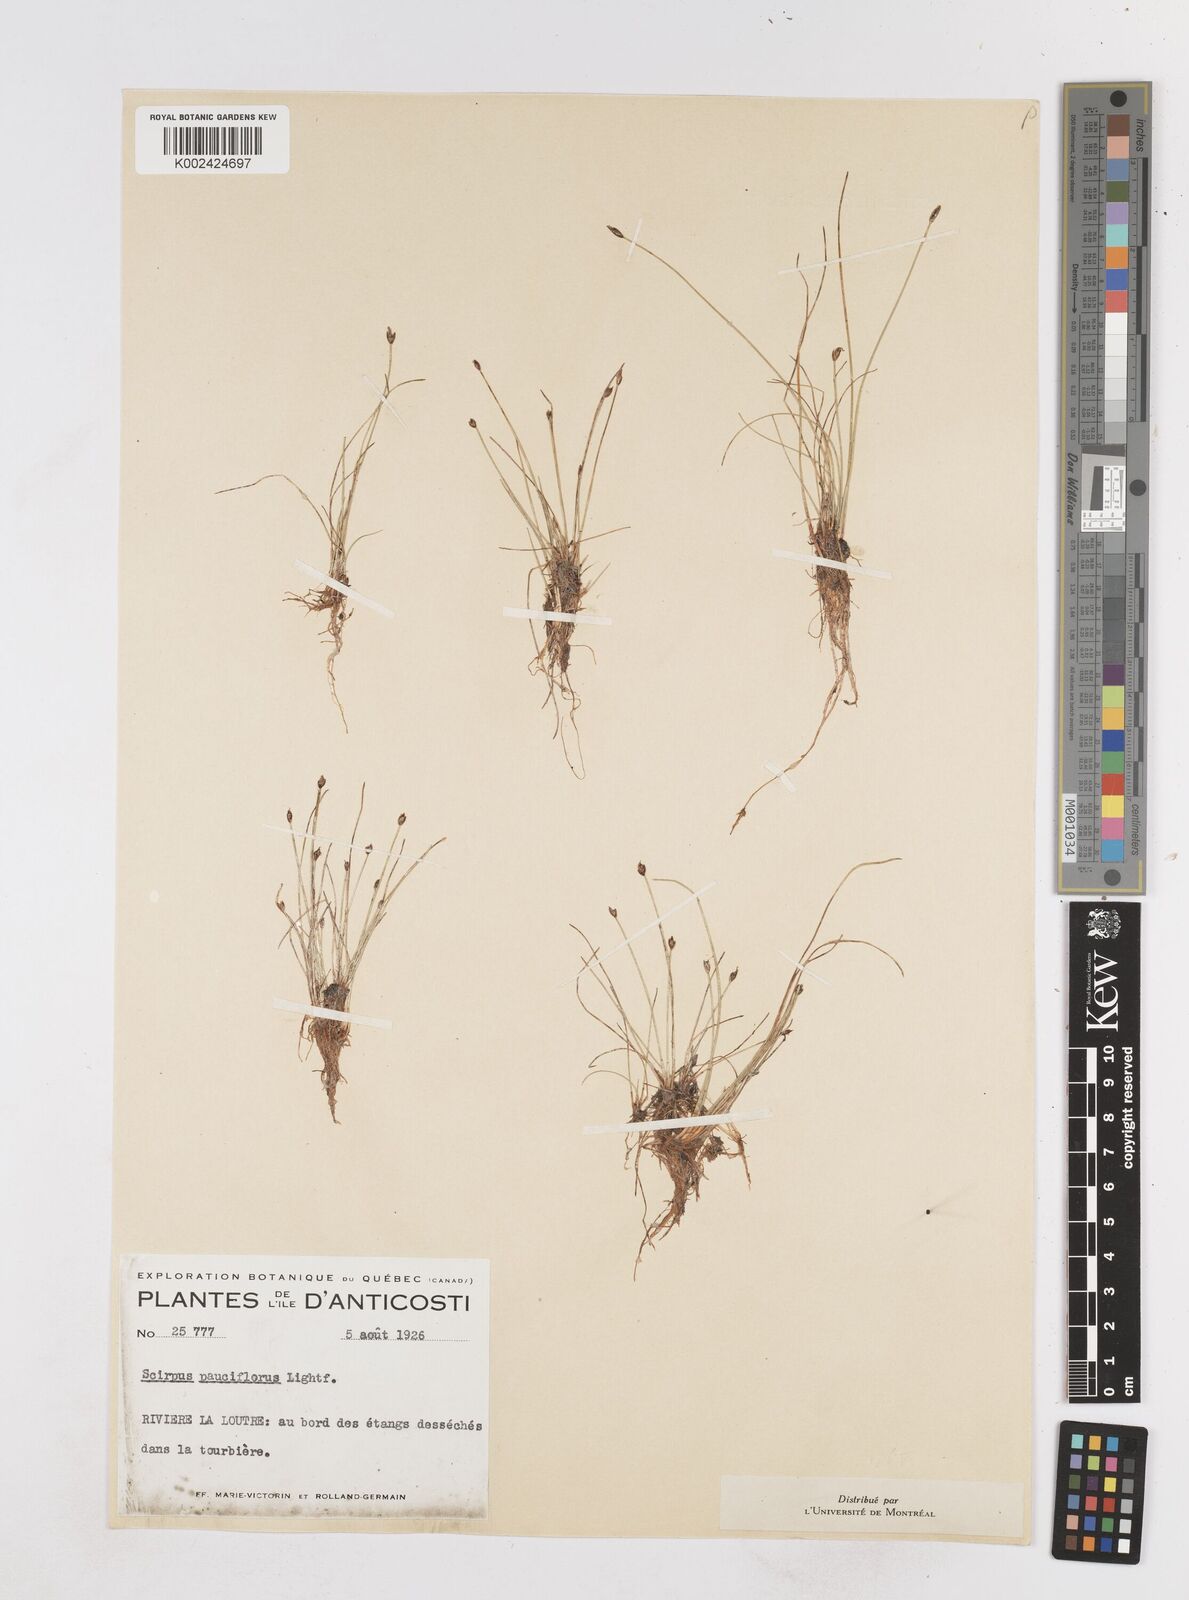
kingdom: Plantae
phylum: Tracheophyta
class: Liliopsida
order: Poales
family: Cyperaceae
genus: Eleocharis
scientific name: Eleocharis quinqueflora
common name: Few-flowered spike-rush
